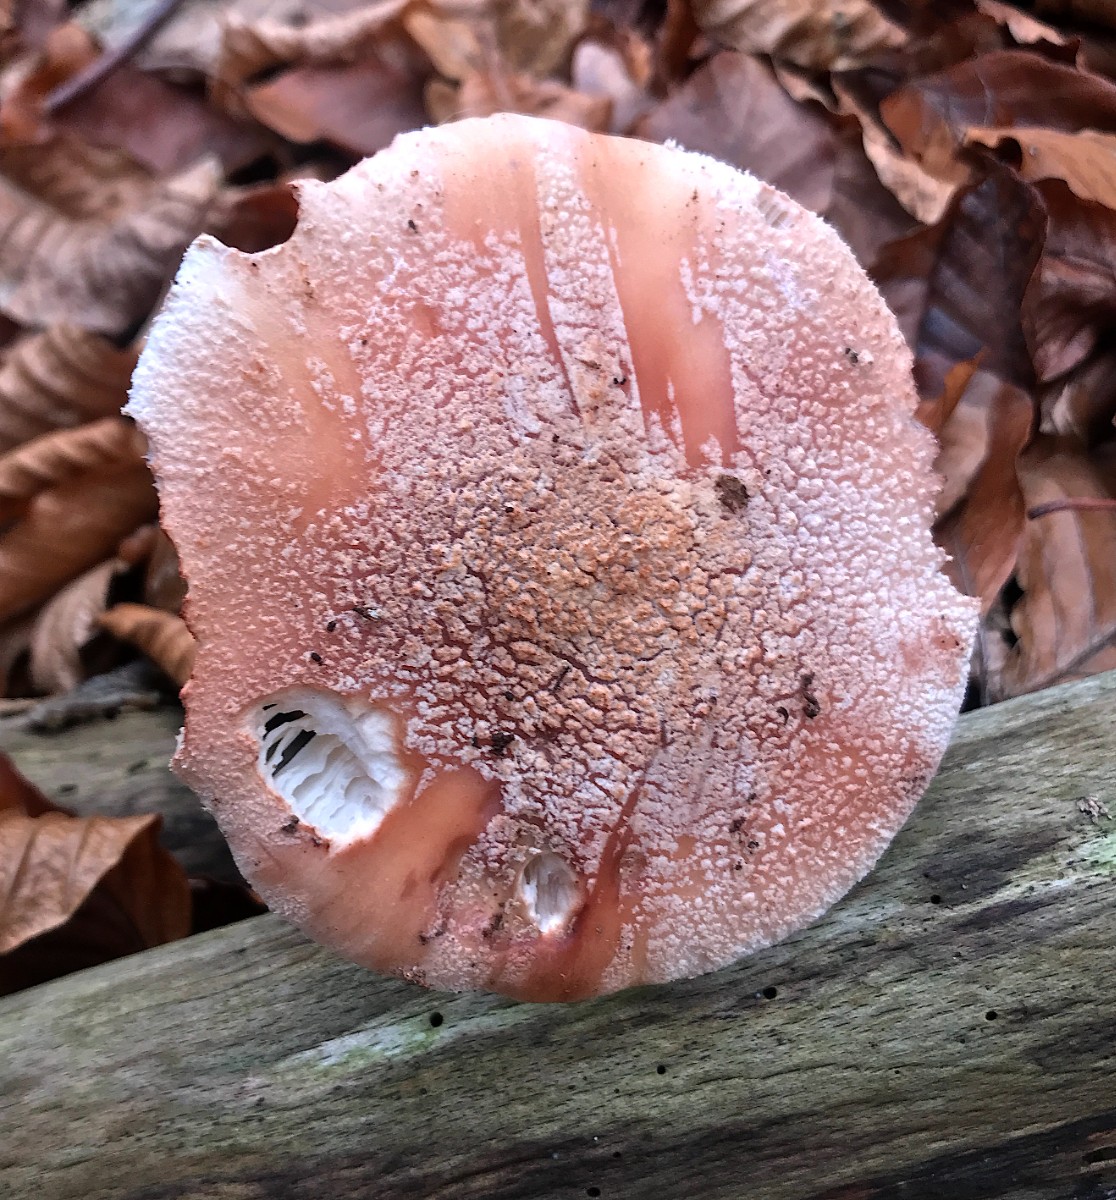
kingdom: Fungi
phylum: Basidiomycota
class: Agaricomycetes
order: Agaricales
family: Amanitaceae
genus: Amanita
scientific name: Amanita rubescens
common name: rødmende fluesvamp
